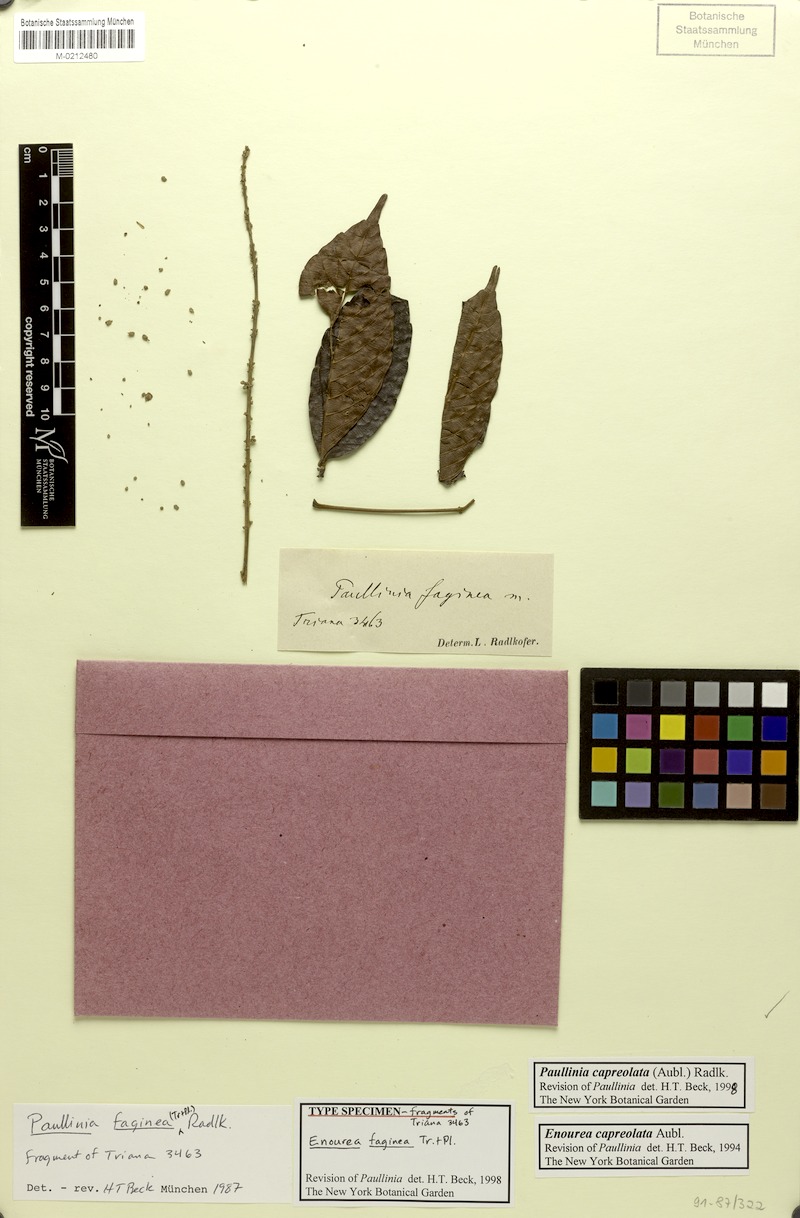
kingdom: Plantae
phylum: Tracheophyta
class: Magnoliopsida
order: Sapindales
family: Sapindaceae
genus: Paullinia
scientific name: Paullinia capreolata
